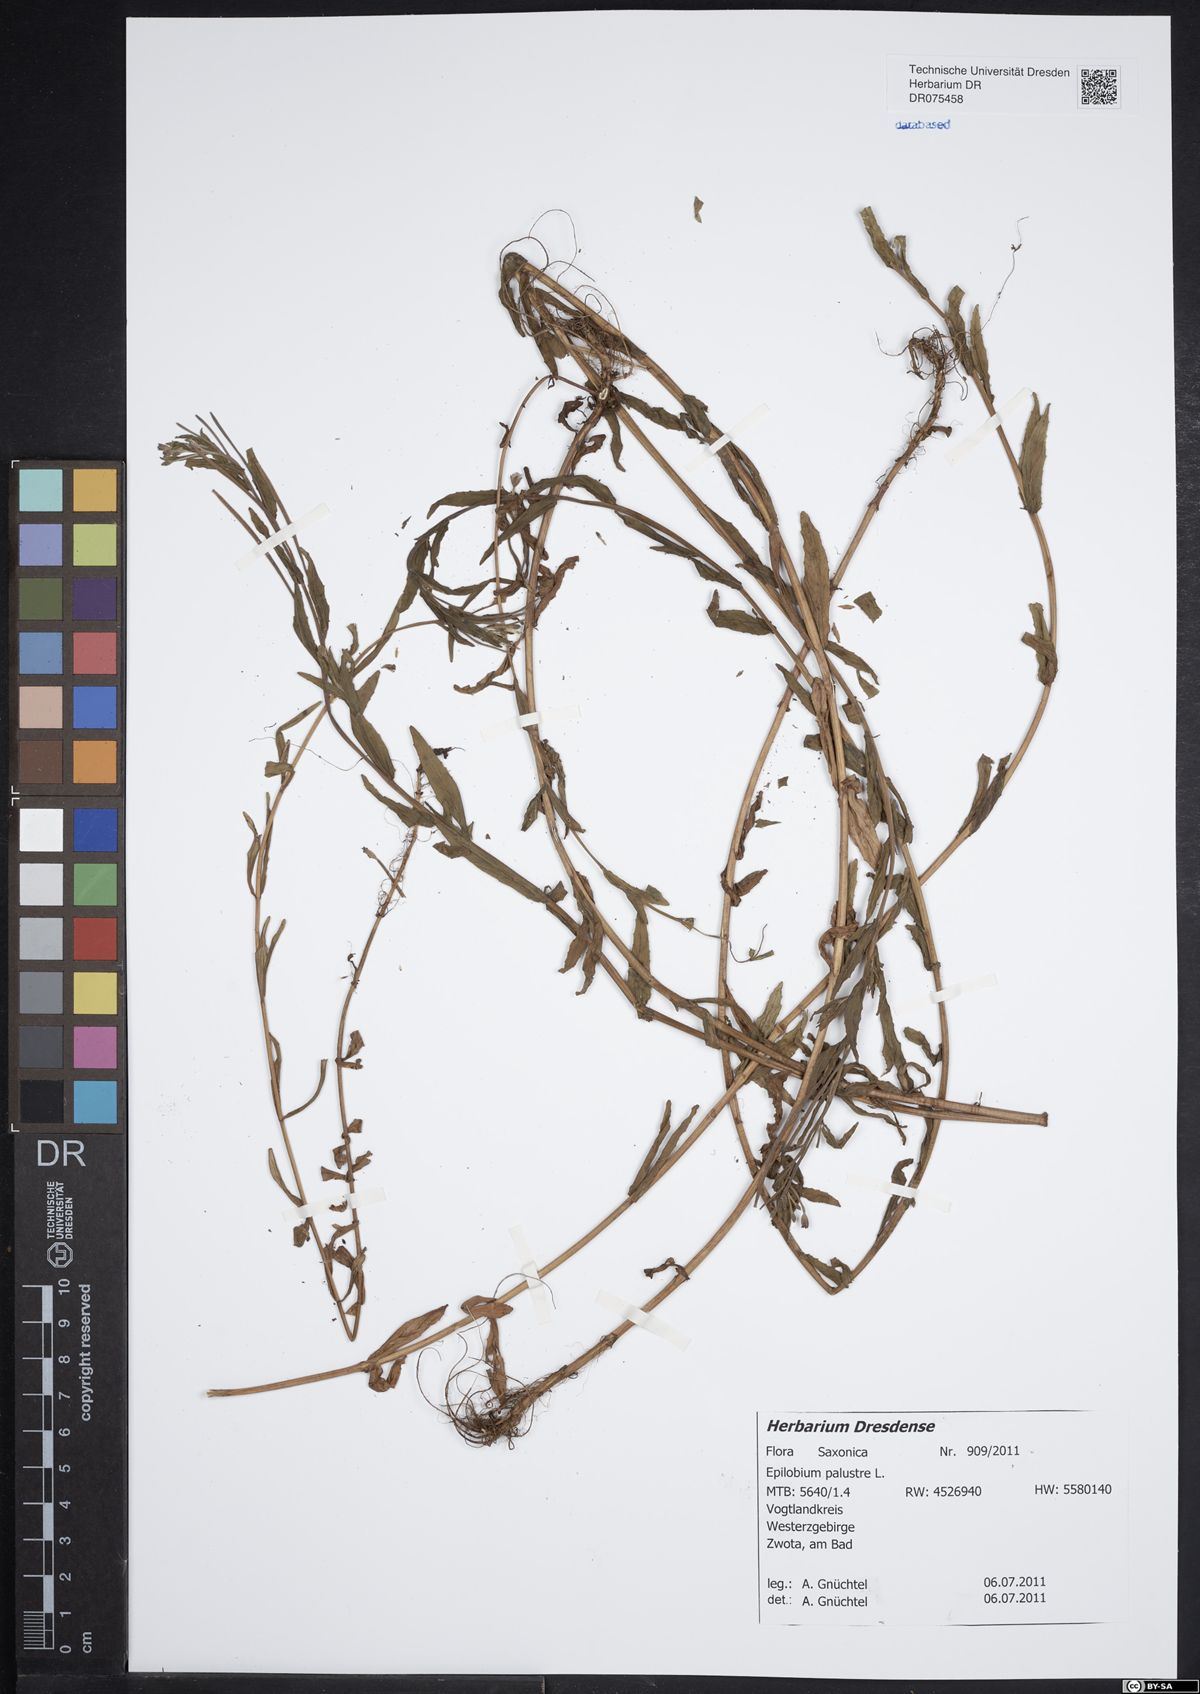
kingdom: Plantae
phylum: Tracheophyta
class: Magnoliopsida
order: Myrtales
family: Onagraceae
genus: Epilobium
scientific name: Epilobium palustre
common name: Marsh willowherb
